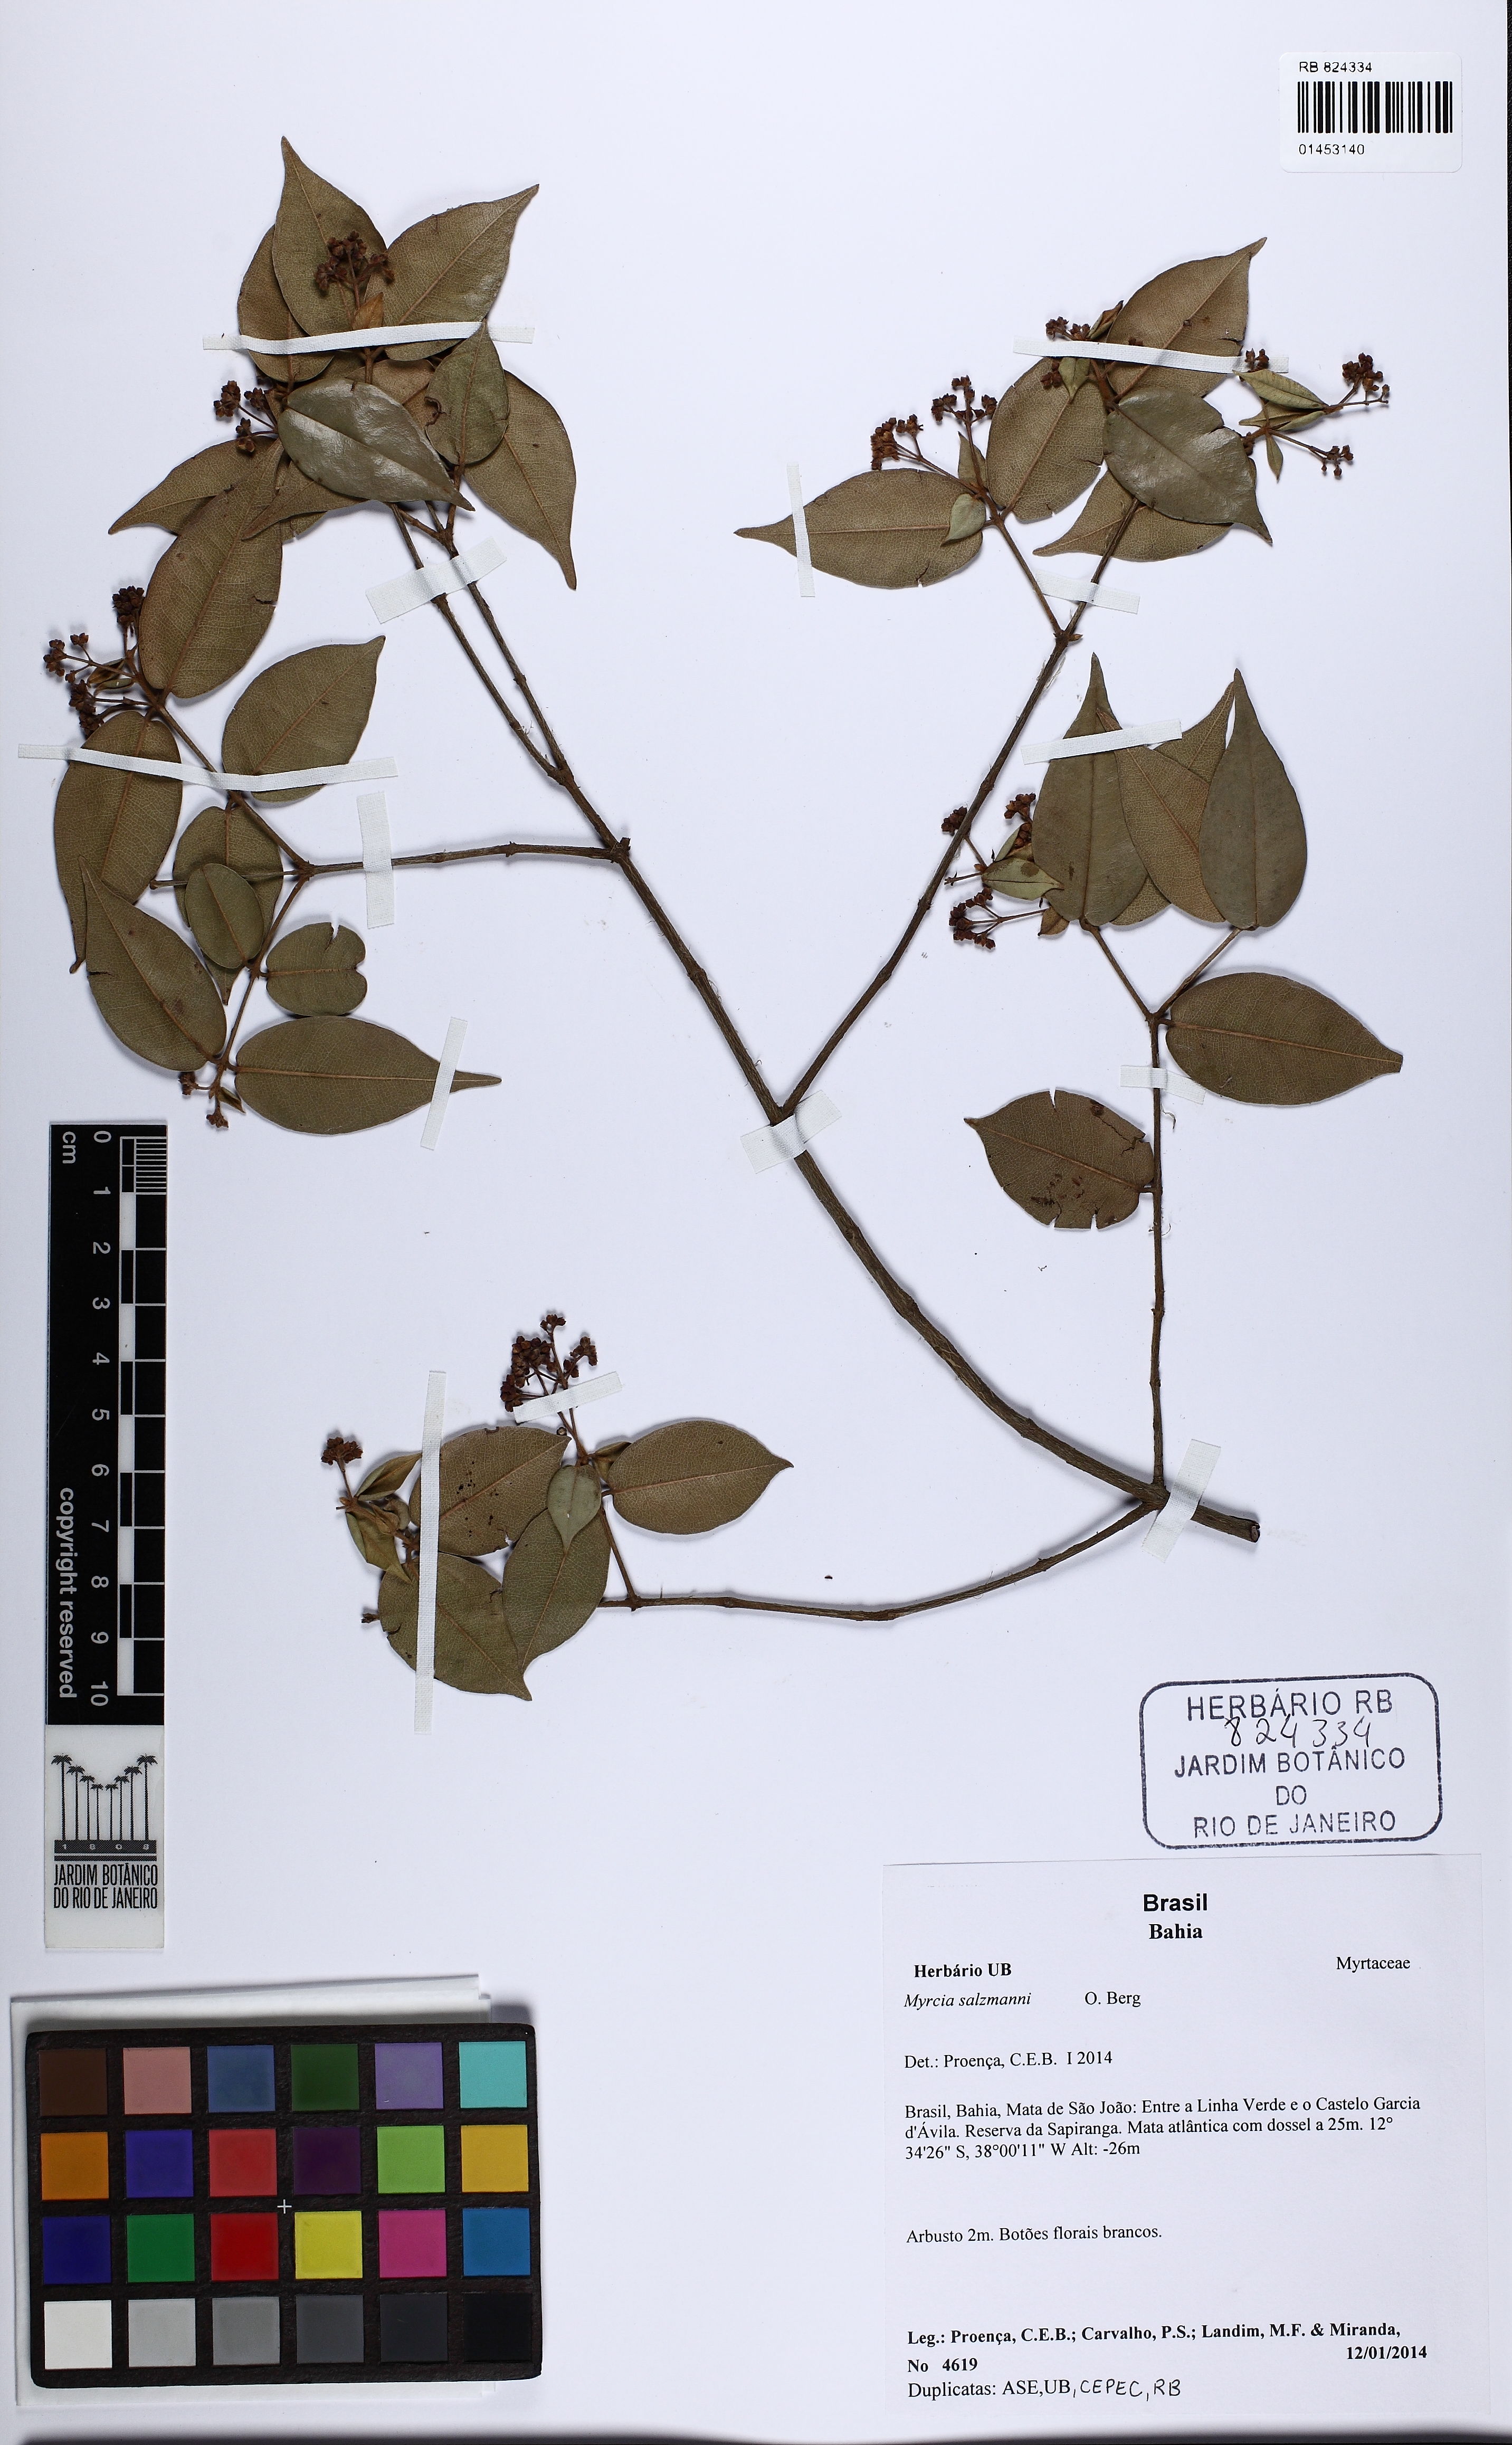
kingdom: Plantae
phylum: Tracheophyta
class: Magnoliopsida
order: Myrtales
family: Myrtaceae
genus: Myrcia
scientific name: Myrcia decorticans
